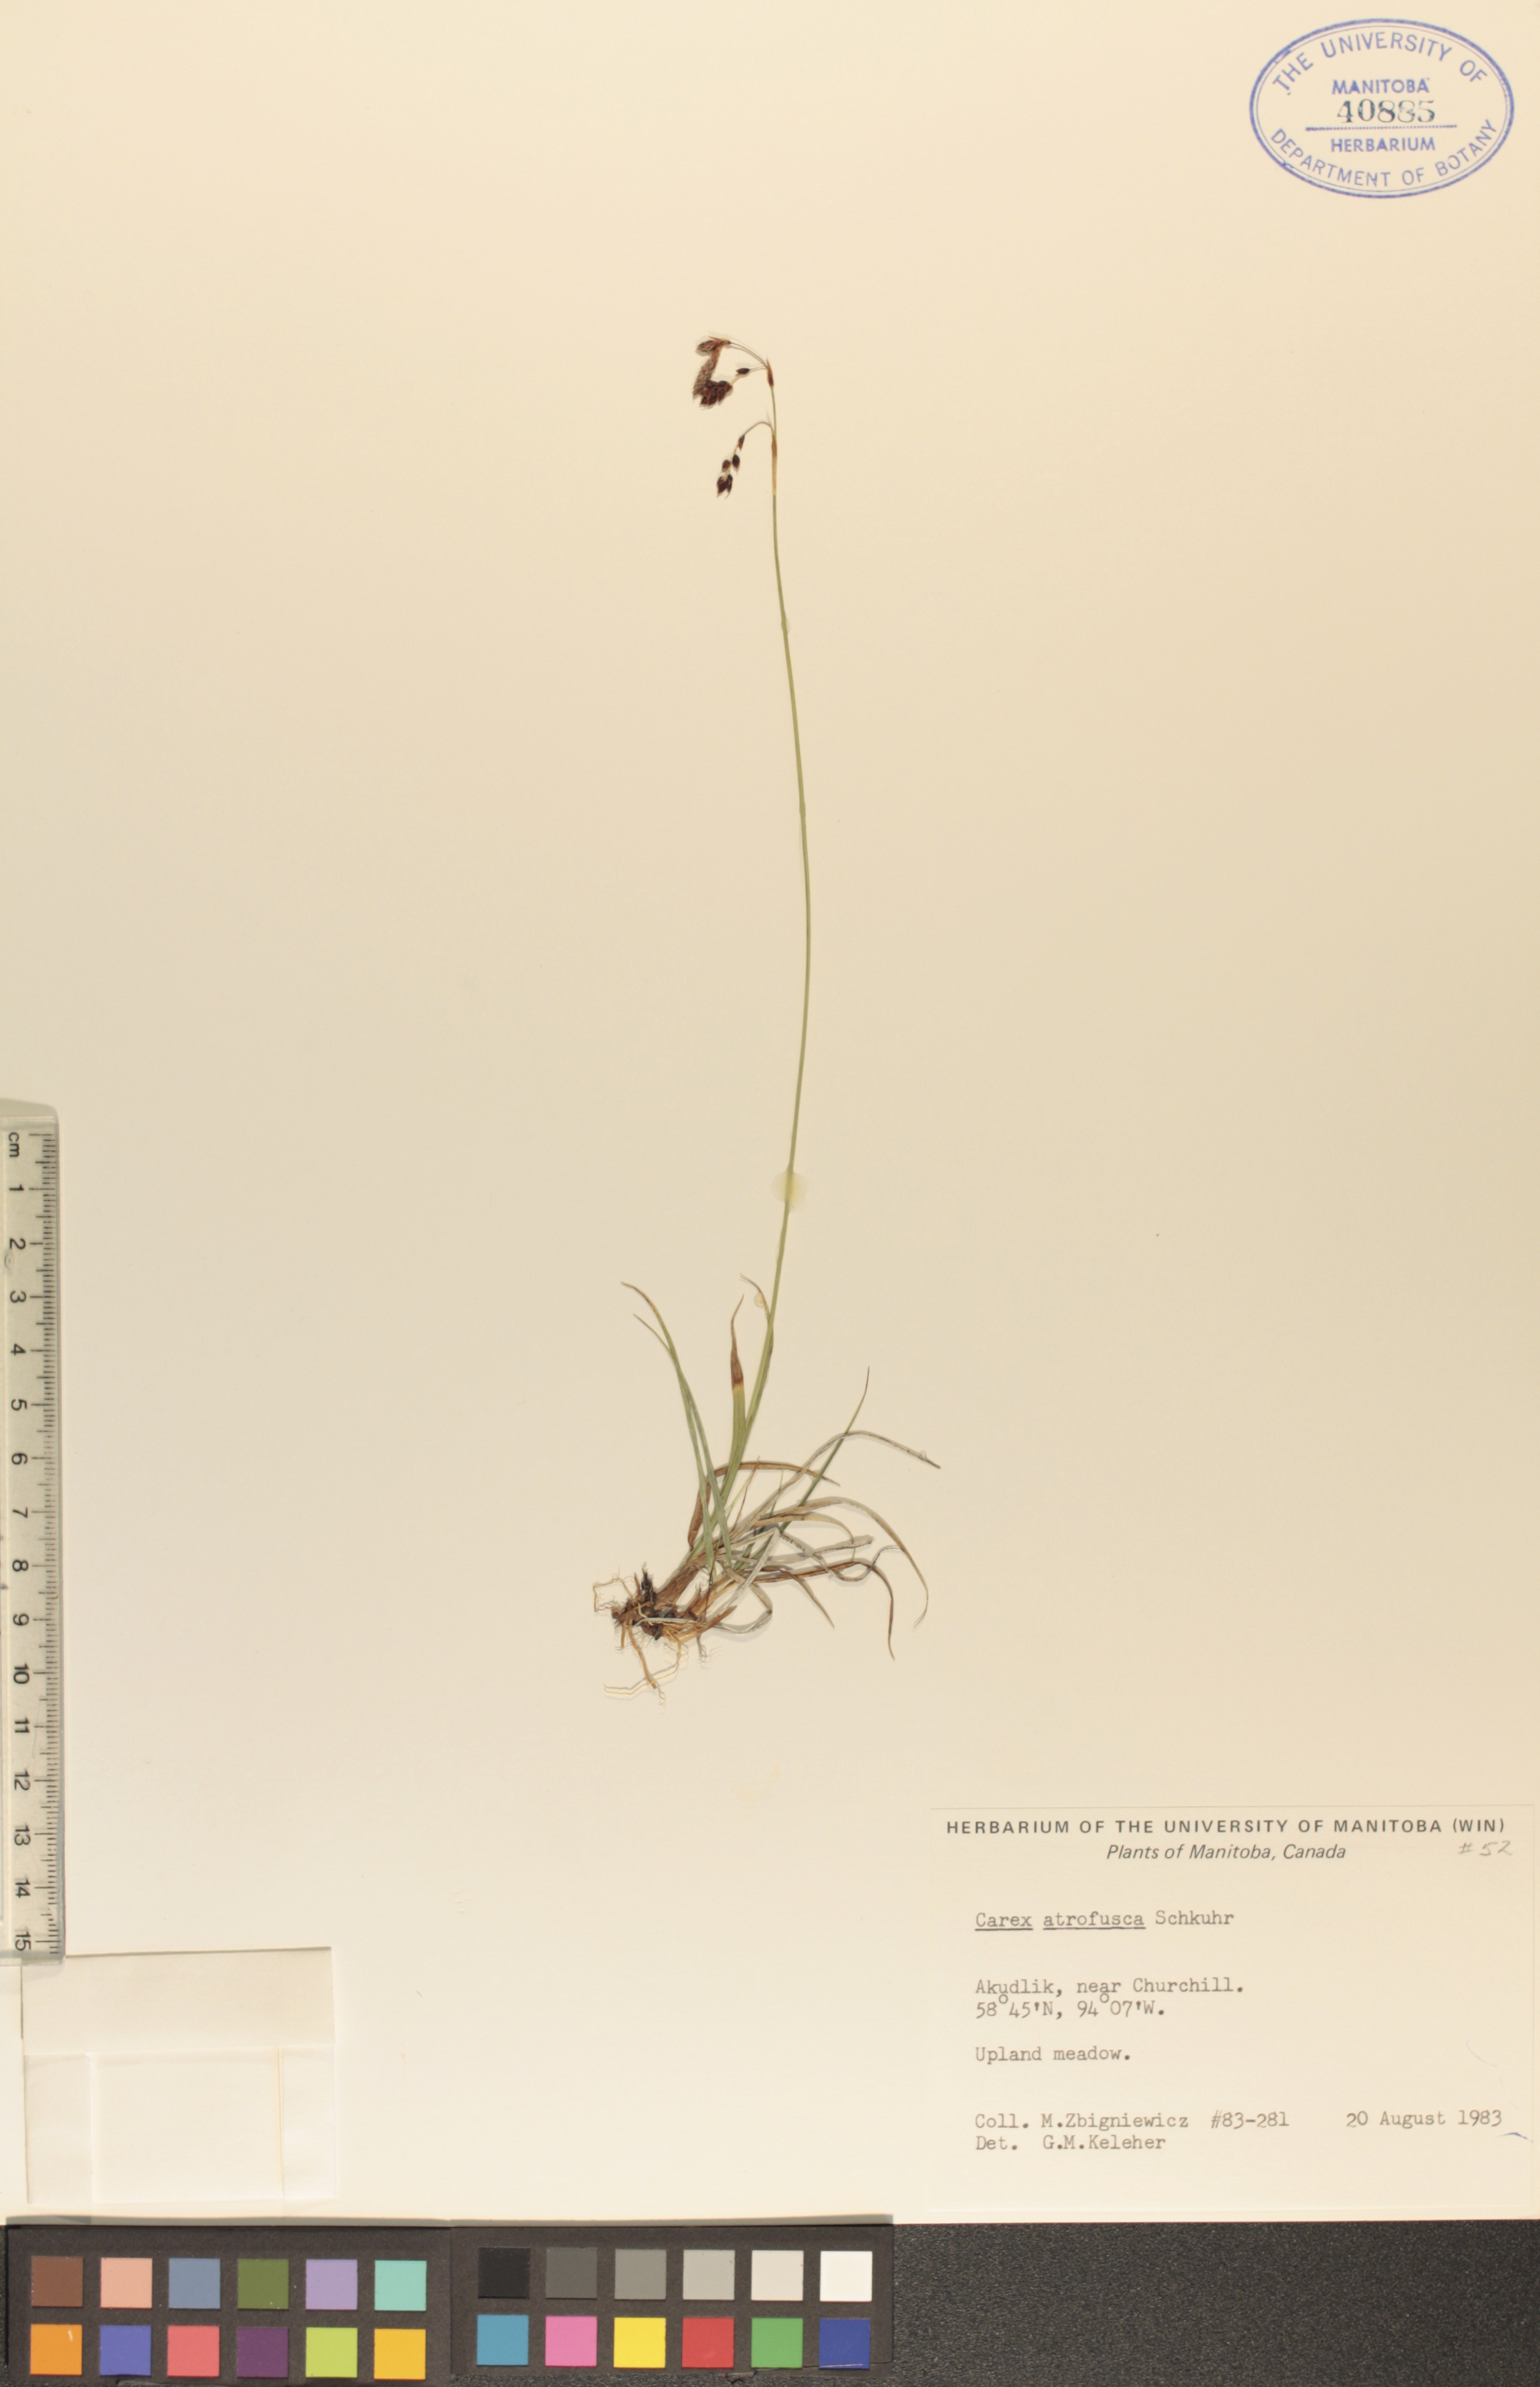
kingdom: Plantae
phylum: Tracheophyta
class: Liliopsida
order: Poales
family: Cyperaceae
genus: Carex
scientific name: Carex pichinchensis
